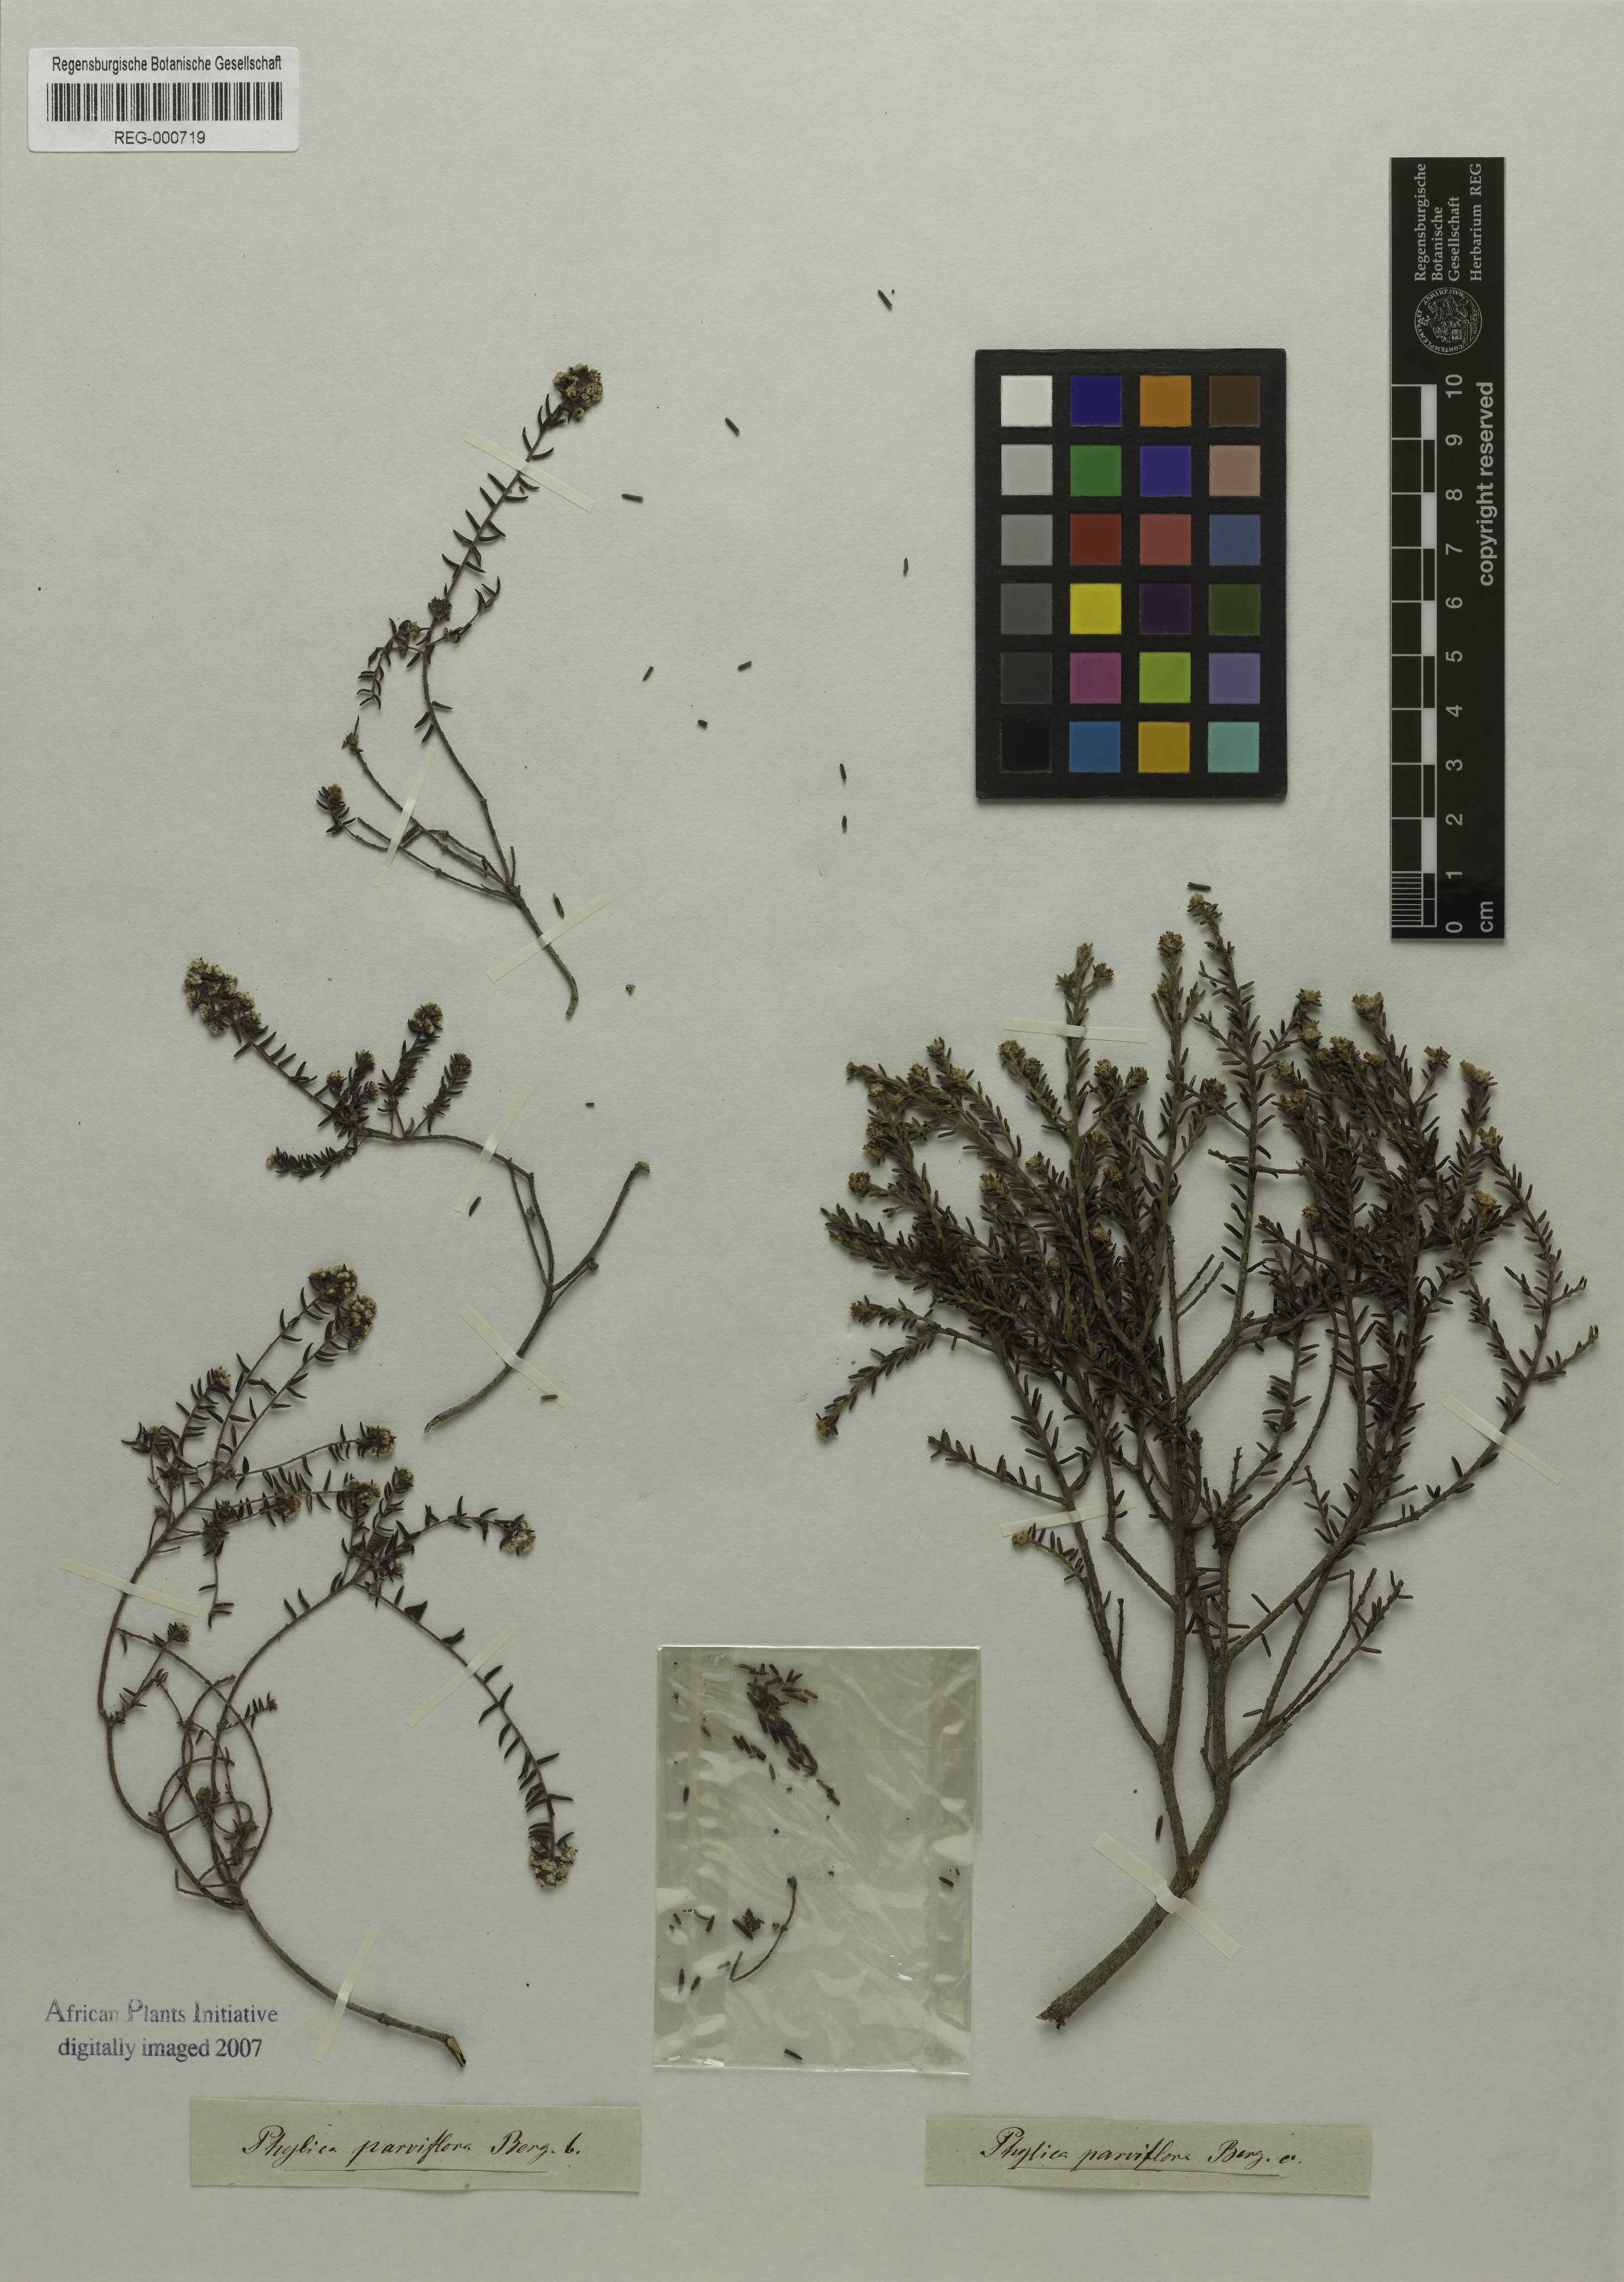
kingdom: Plantae
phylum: Tracheophyta
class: Magnoliopsida
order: Rosales
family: Rhamnaceae
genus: Phylica
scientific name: Phylica parviflora
